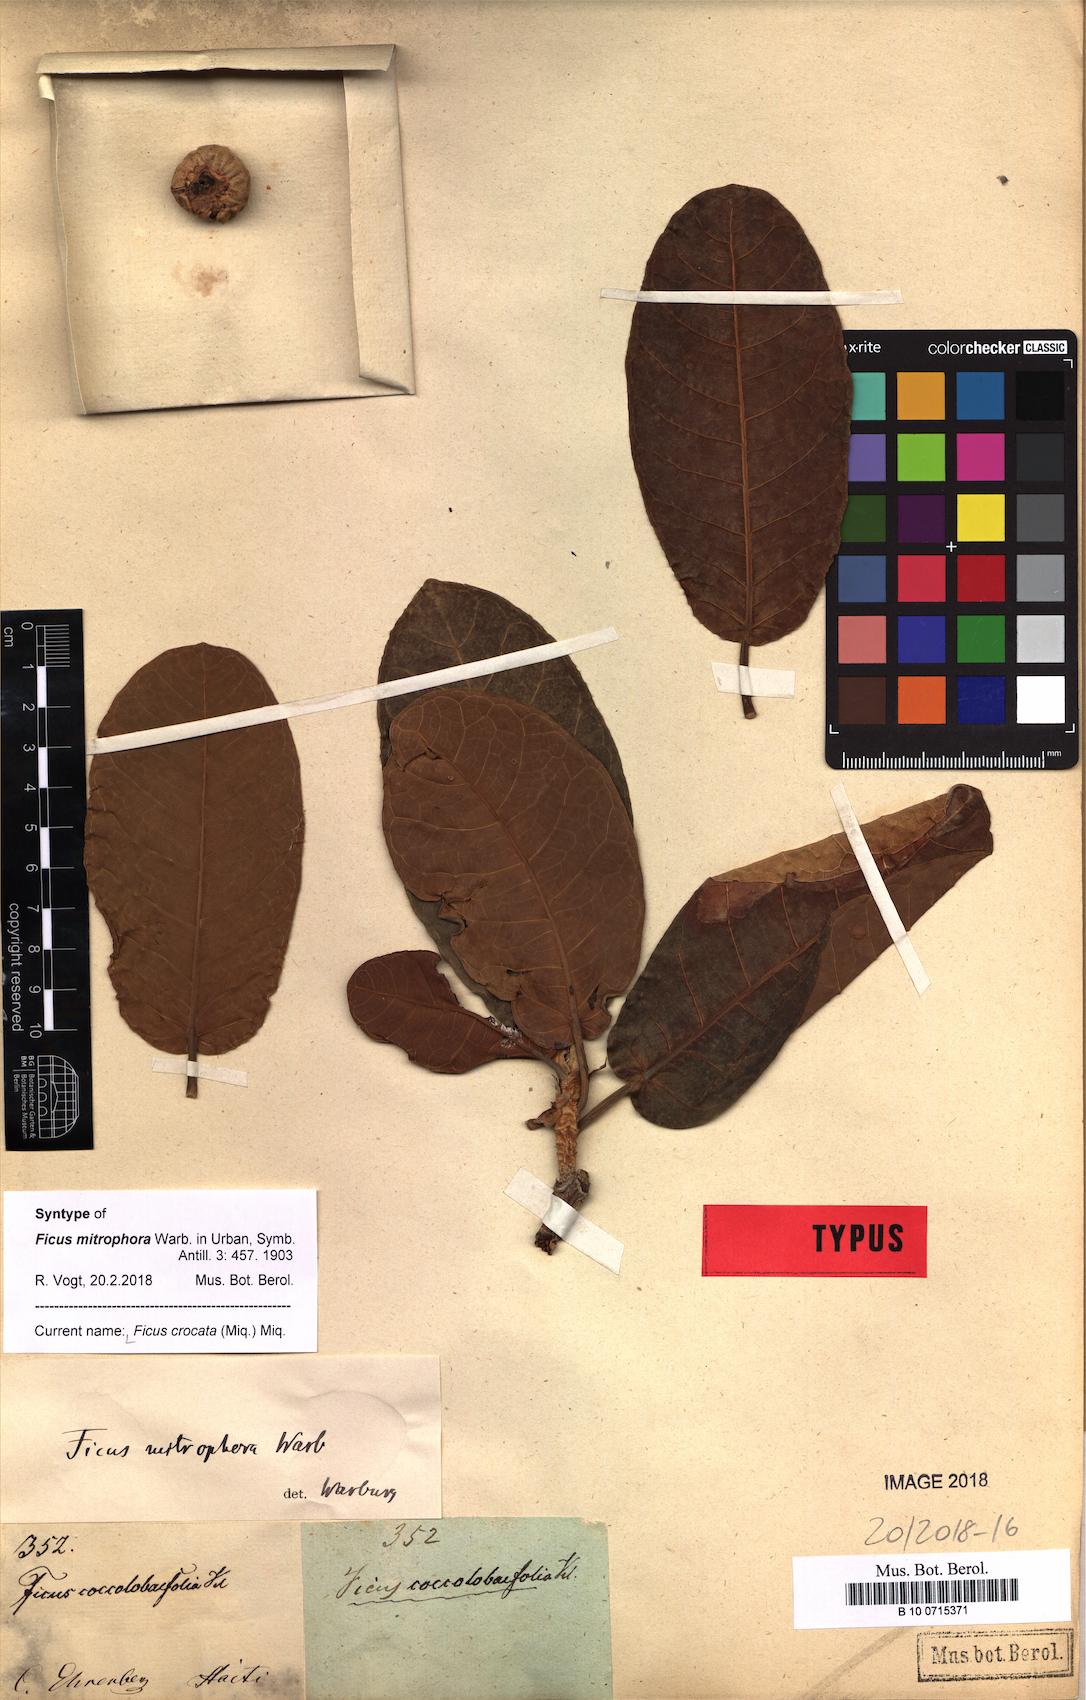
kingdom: Plantae
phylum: Tracheophyta
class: Magnoliopsida
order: Rosales
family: Moraceae
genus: Ficus
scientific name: Ficus crocata
